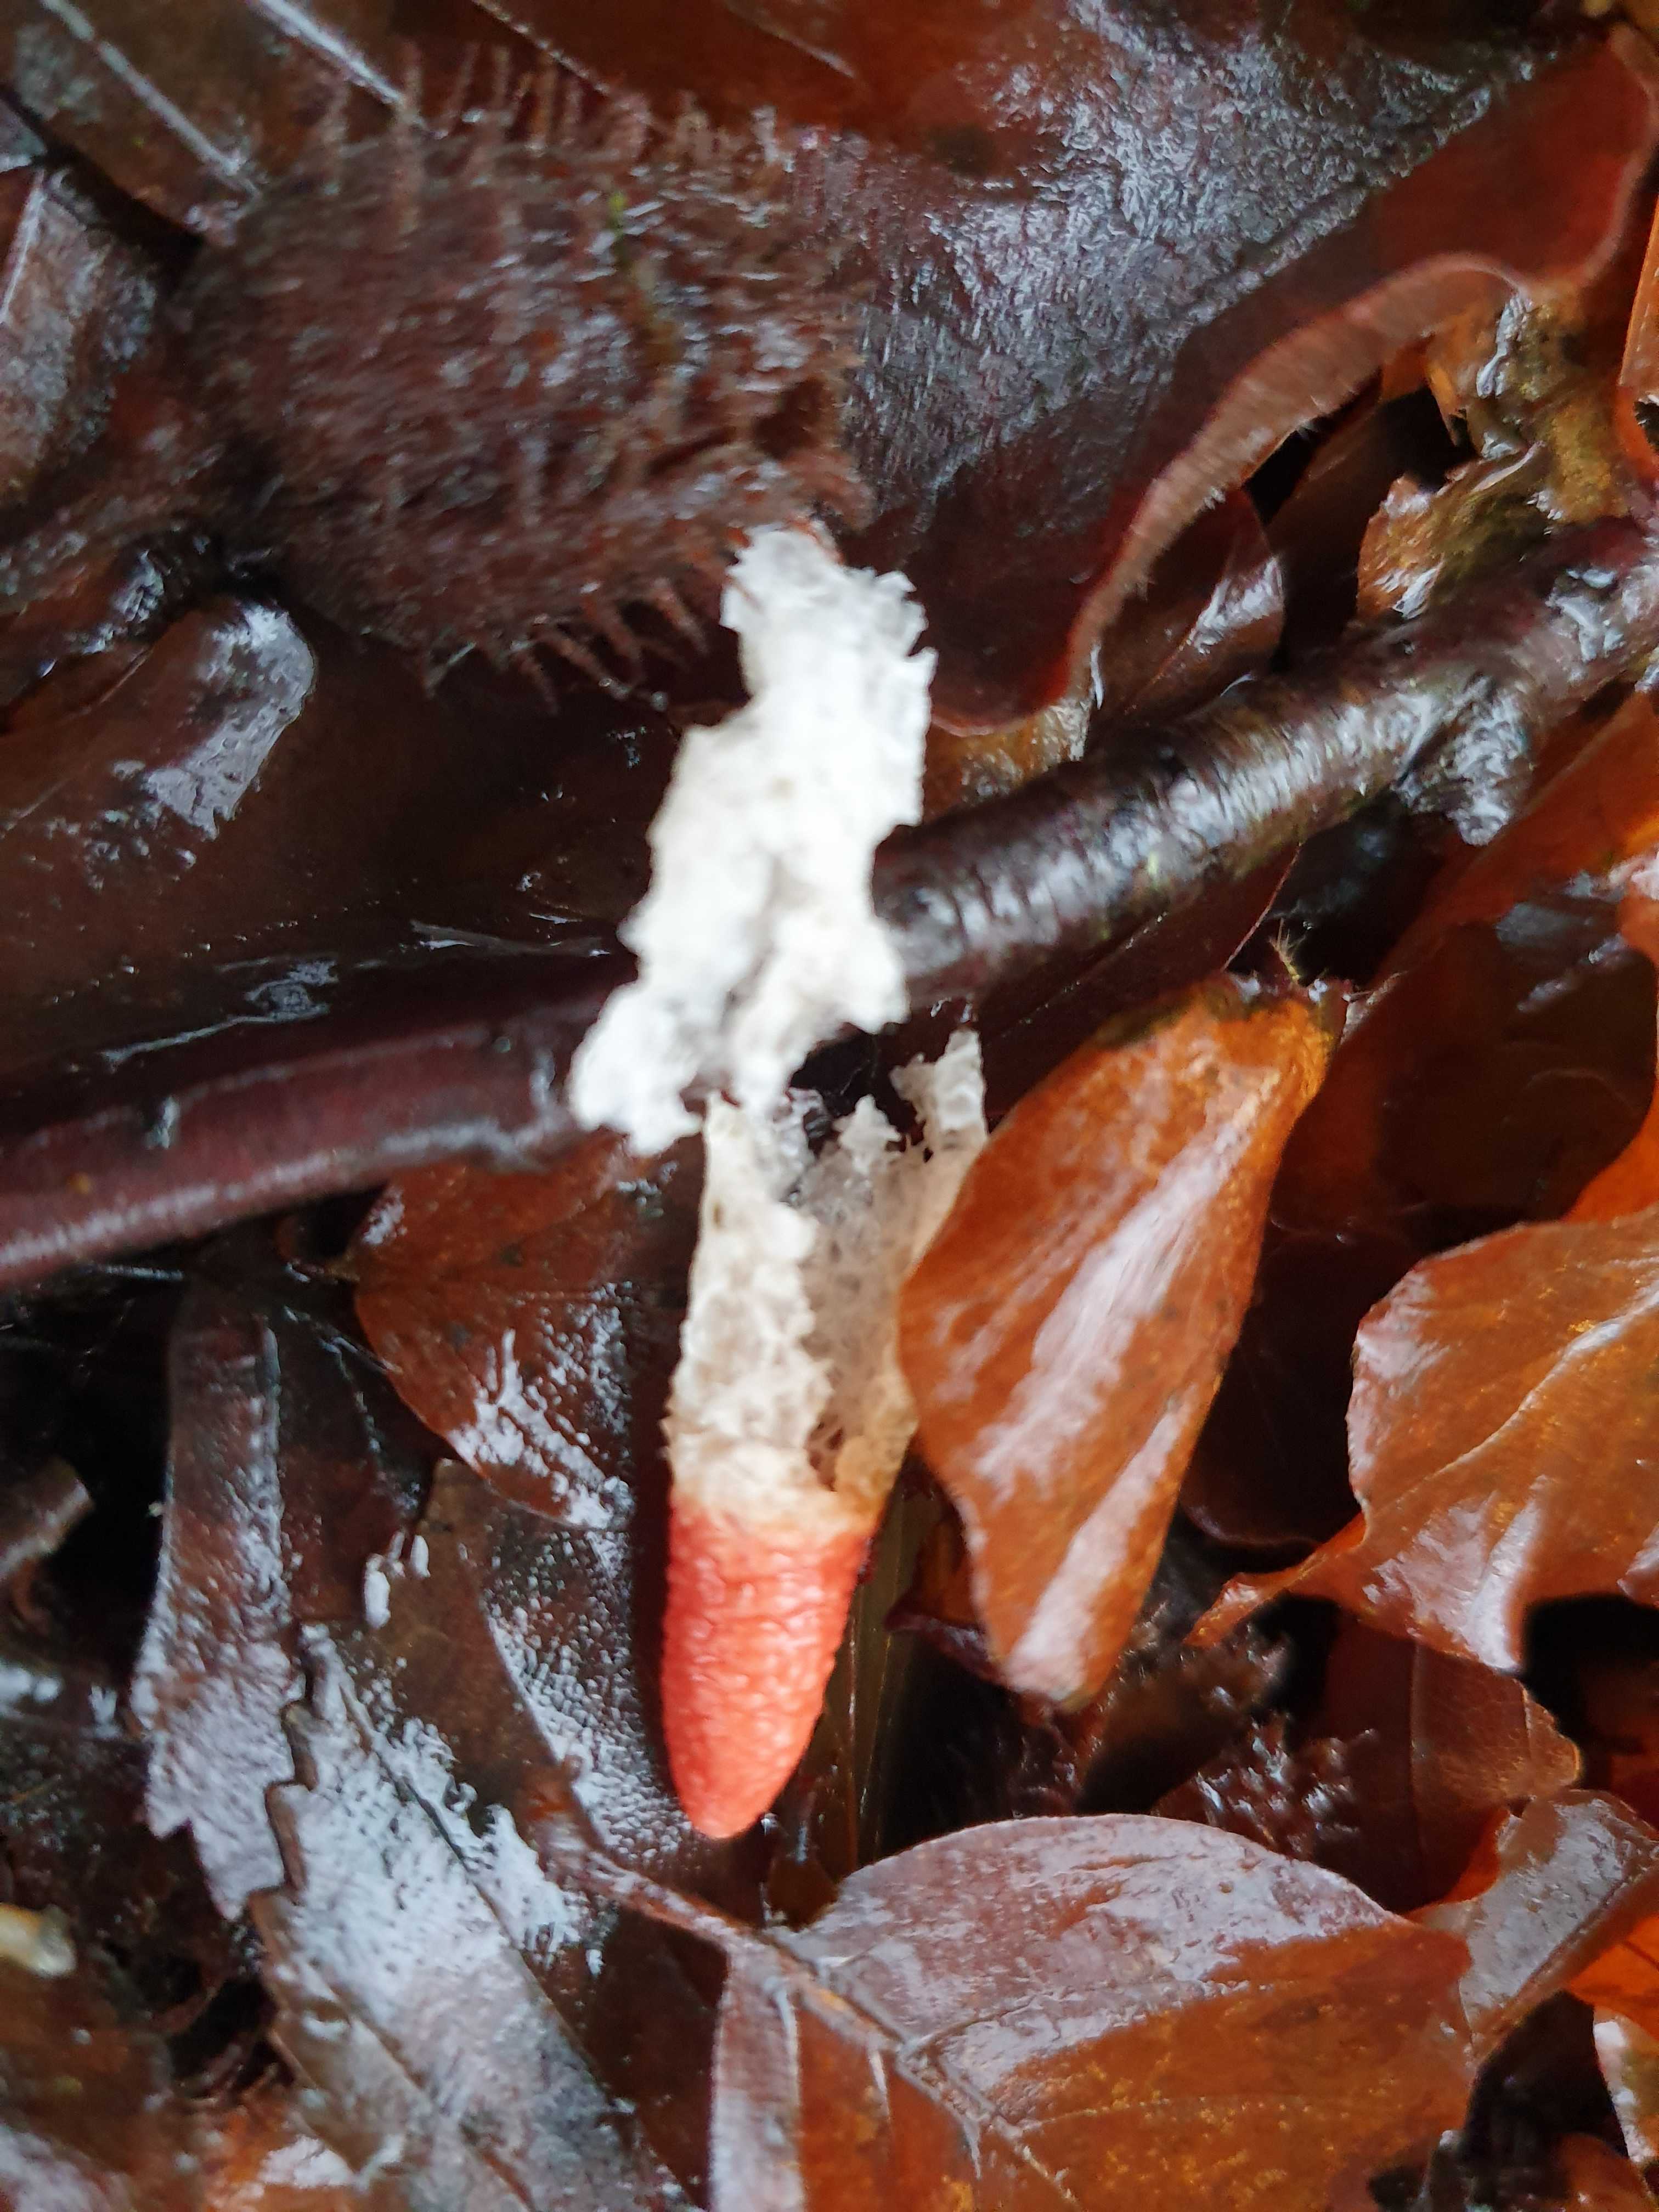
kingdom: Fungi
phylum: Basidiomycota
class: Agaricomycetes
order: Phallales
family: Phallaceae
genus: Mutinus
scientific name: Mutinus caninus
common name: hunde-stinksvamp
